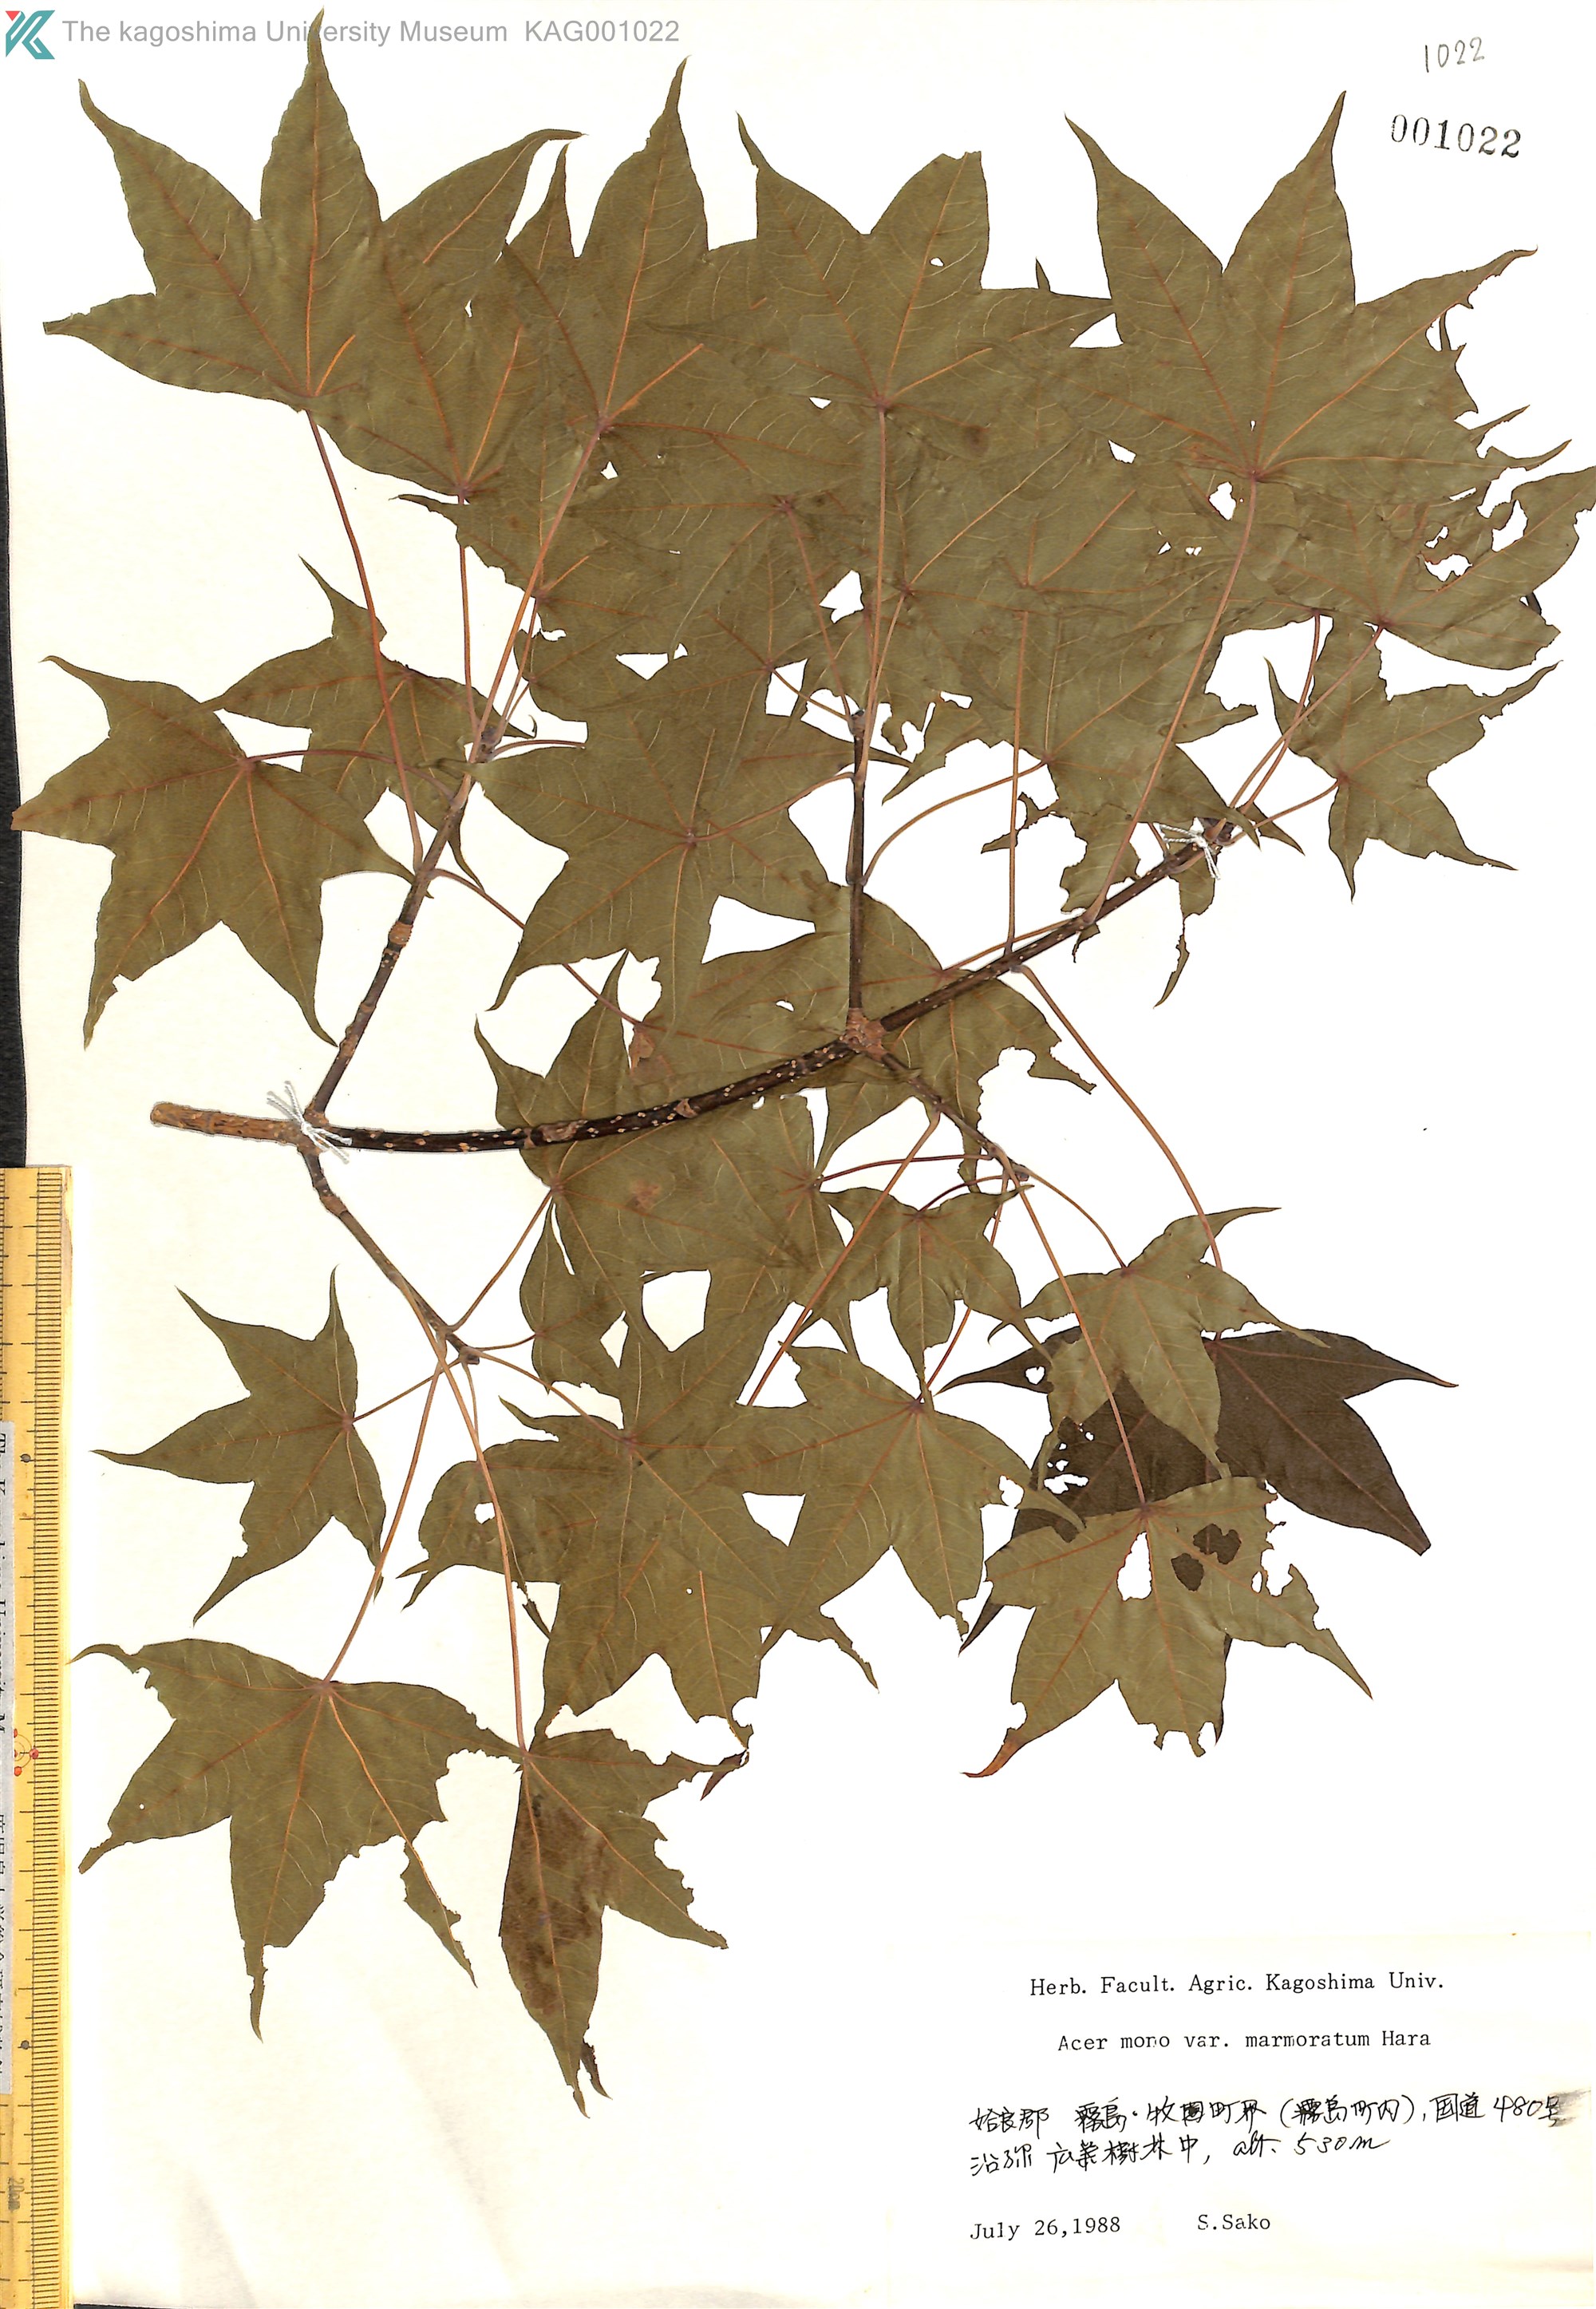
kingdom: Plantae
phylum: Tracheophyta
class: Magnoliopsida
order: Sapindales
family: Sapindaceae
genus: Acer
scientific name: Acer pictum
